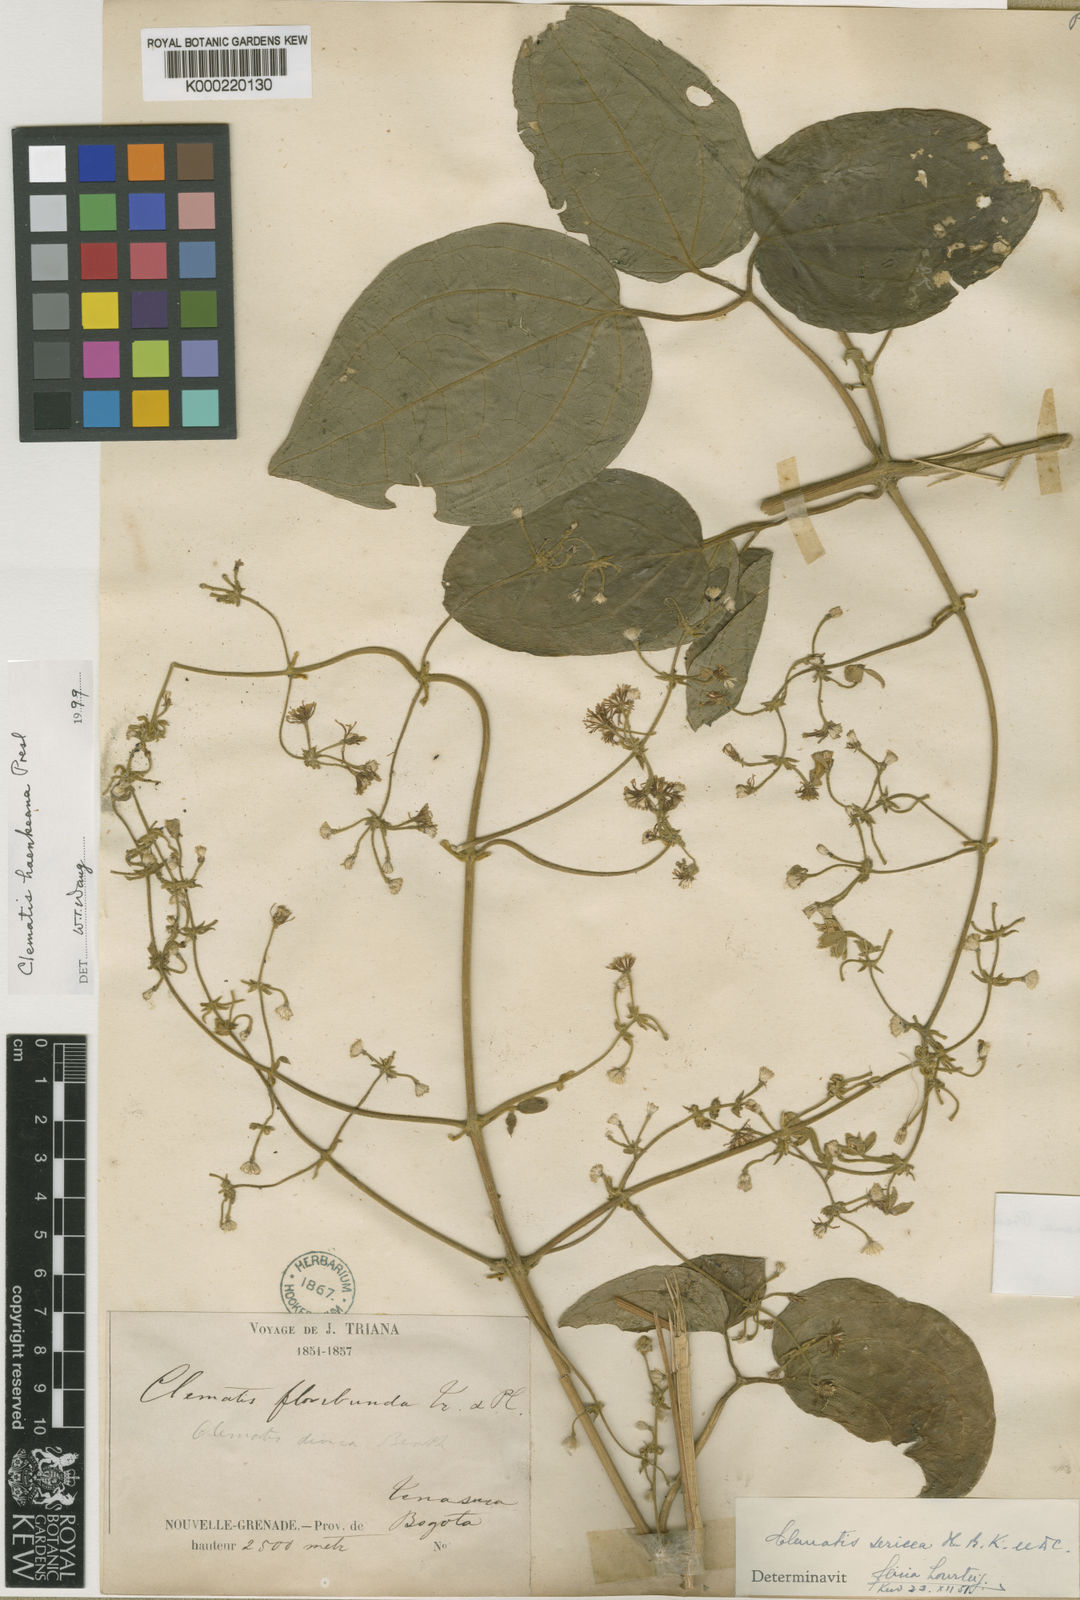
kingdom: Plantae
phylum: Tracheophyta
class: Magnoliopsida
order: Ranunculales
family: Ranunculaceae
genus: Clematis
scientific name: Clematis haenkeana
